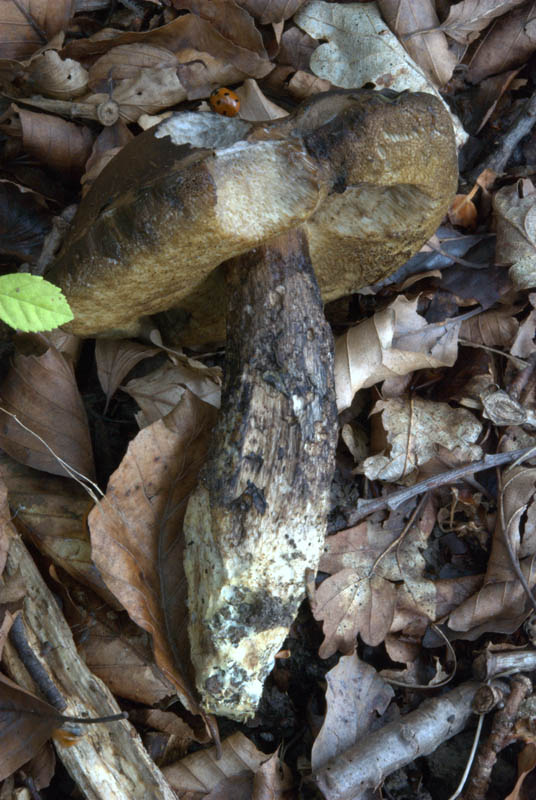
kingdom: Fungi
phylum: Basidiomycota
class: Agaricomycetes
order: Boletales
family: Boletaceae
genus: Porphyrellus
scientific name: Porphyrellus porphyrosporus
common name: sodrørhat
